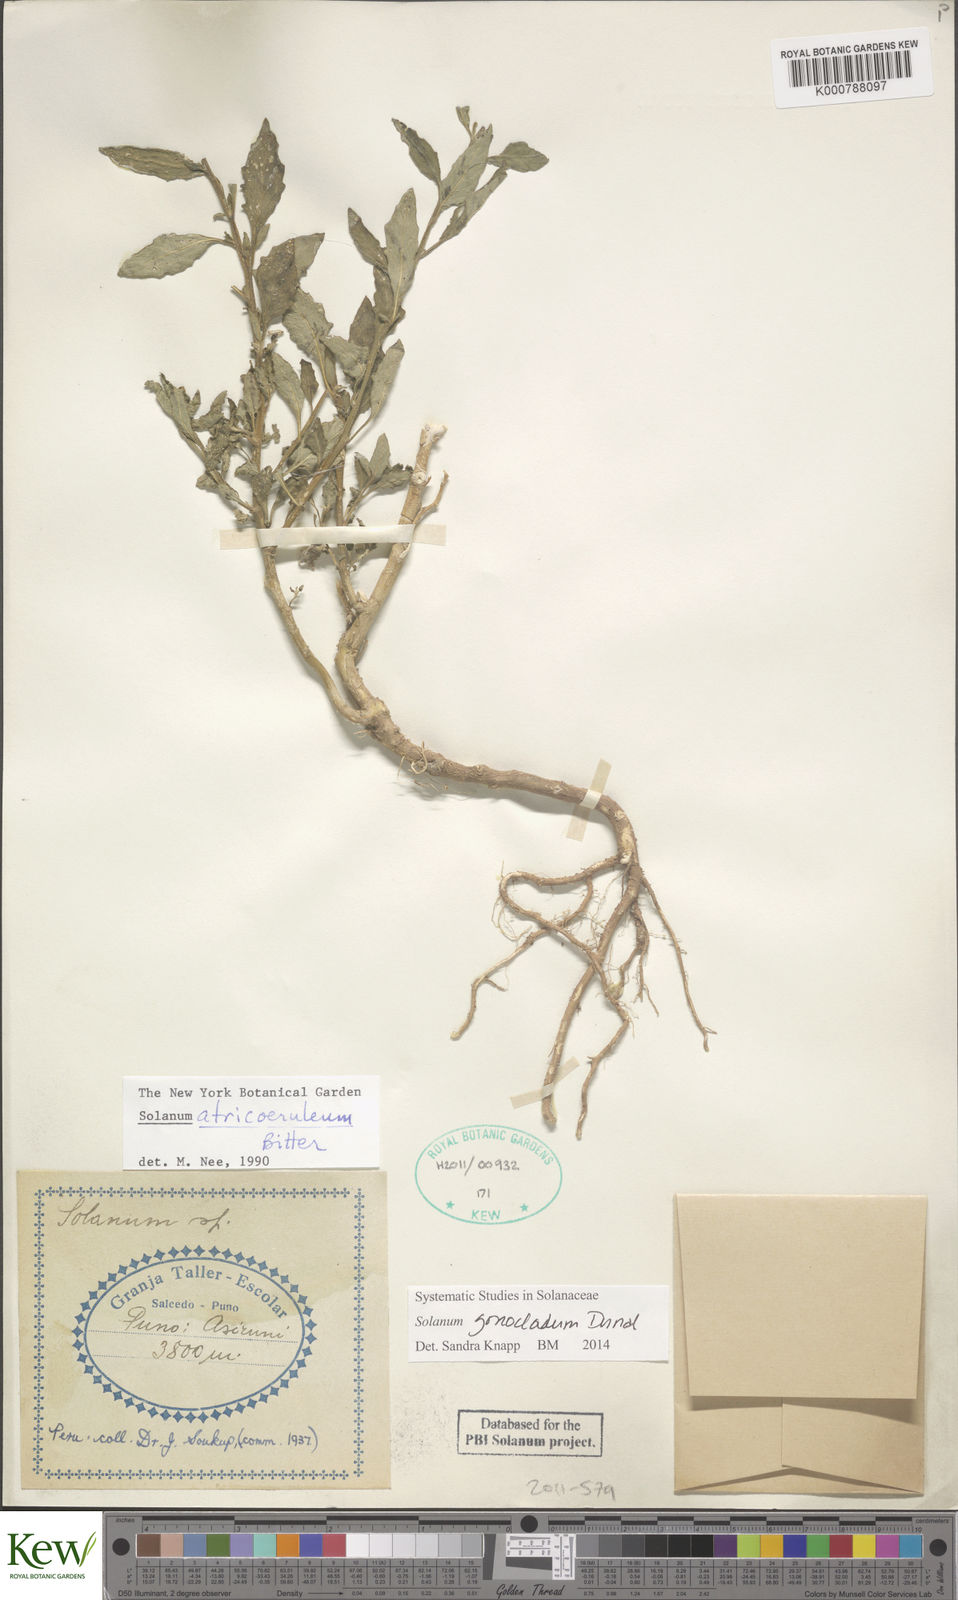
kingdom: Plantae
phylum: Tracheophyta
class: Magnoliopsida
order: Solanales
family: Solanaceae
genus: Solanum
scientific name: Solanum gonocladum
